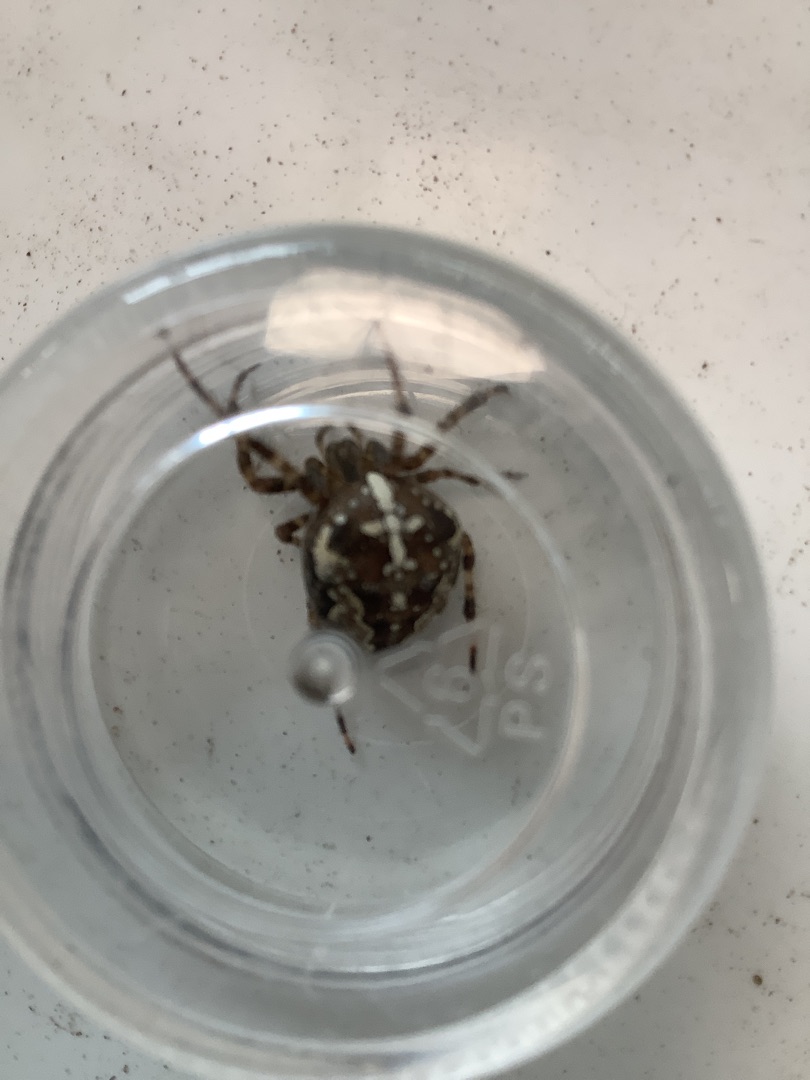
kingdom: Animalia
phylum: Arthropoda
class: Arachnida
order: Araneae
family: Araneidae
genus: Araneus
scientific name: Araneus diadematus
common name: Korsedderkop
